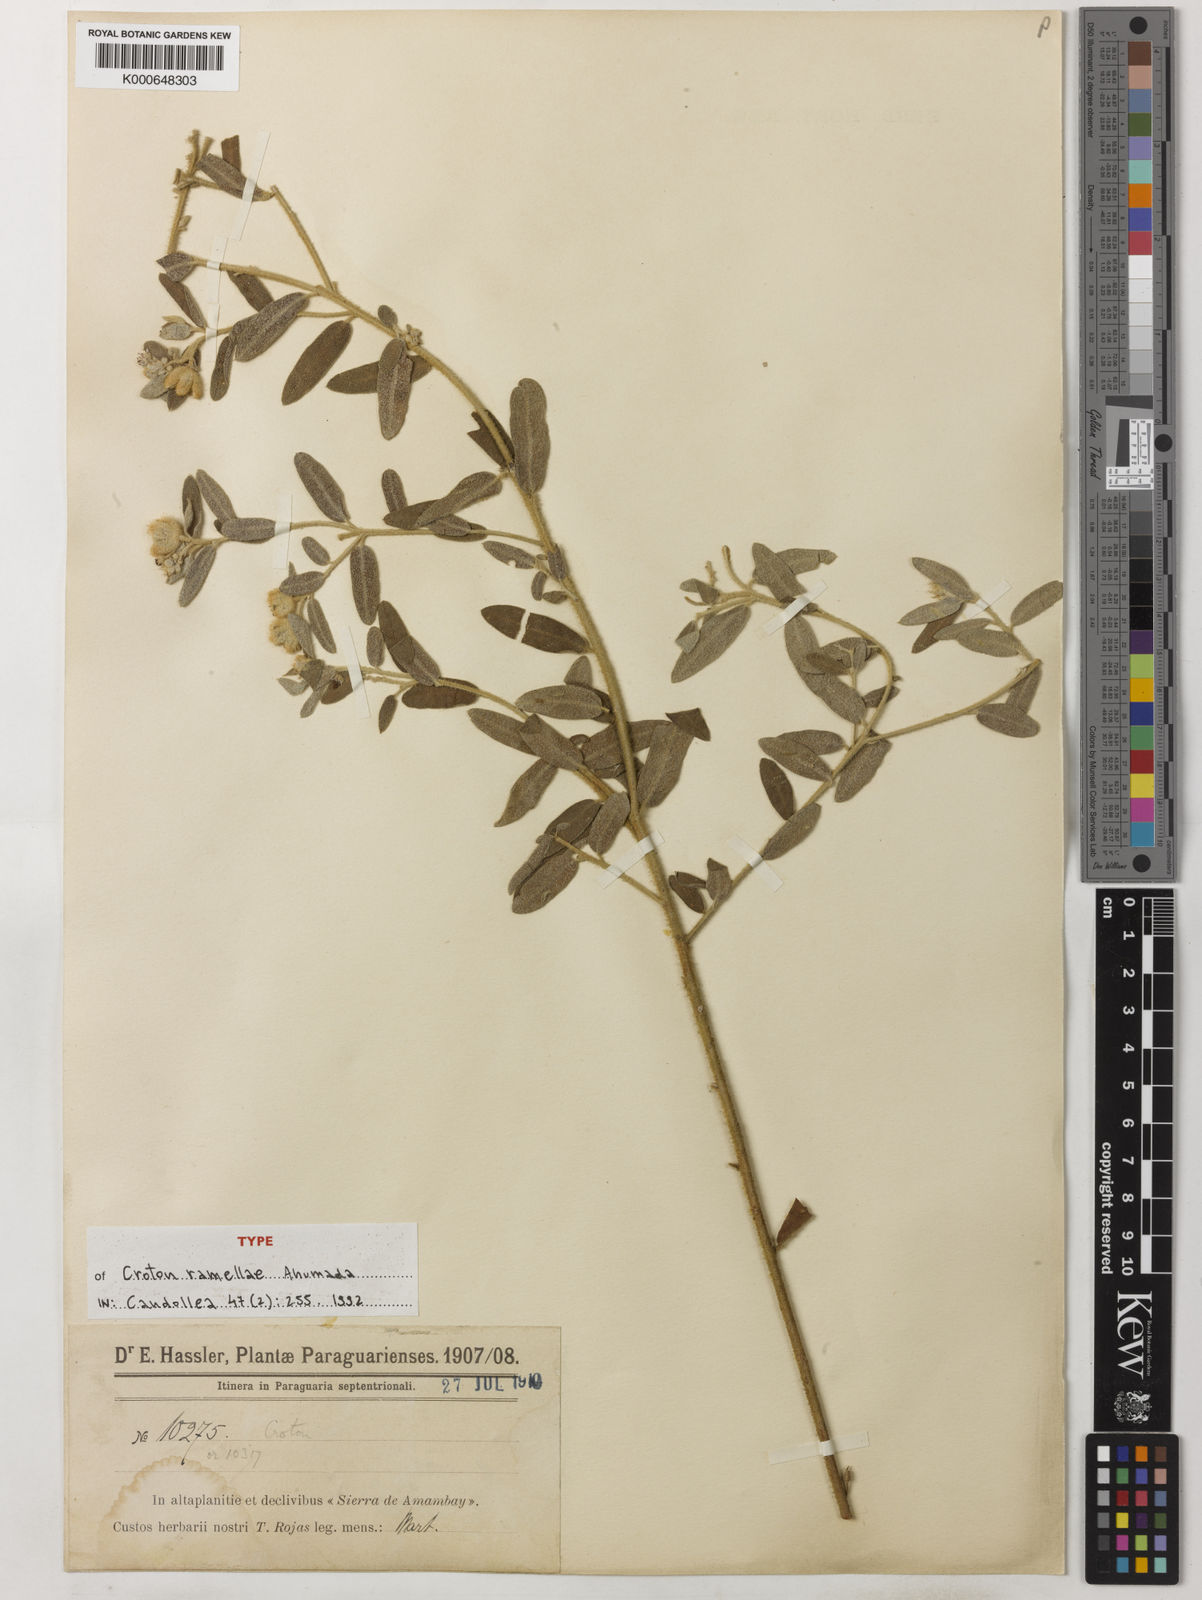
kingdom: Plantae
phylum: Tracheophyta
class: Magnoliopsida
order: Malpighiales
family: Euphorbiaceae
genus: Croton
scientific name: Croton ramellae
